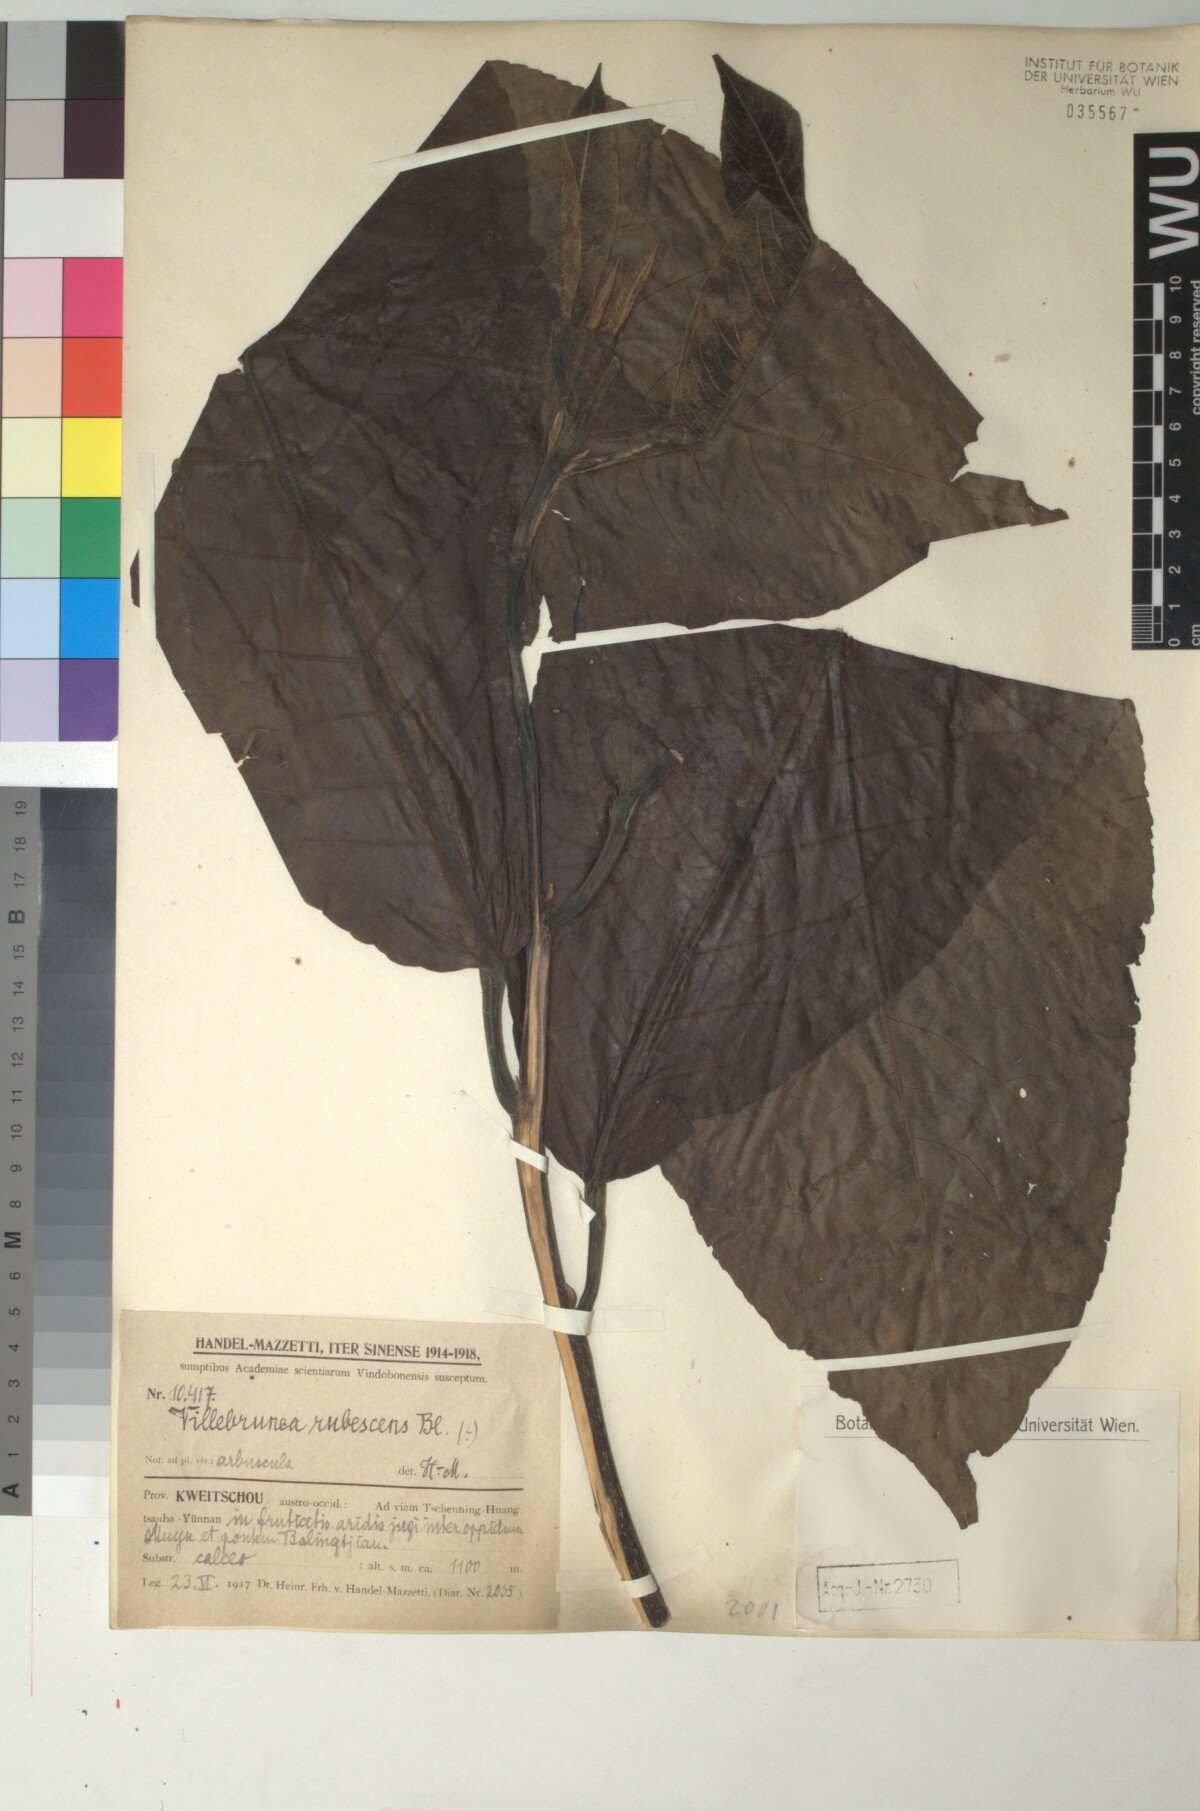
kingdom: Plantae
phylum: Tracheophyta
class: Magnoliopsida
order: Rosales
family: Urticaceae
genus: Oreocnide
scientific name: Oreocnide rubescens
